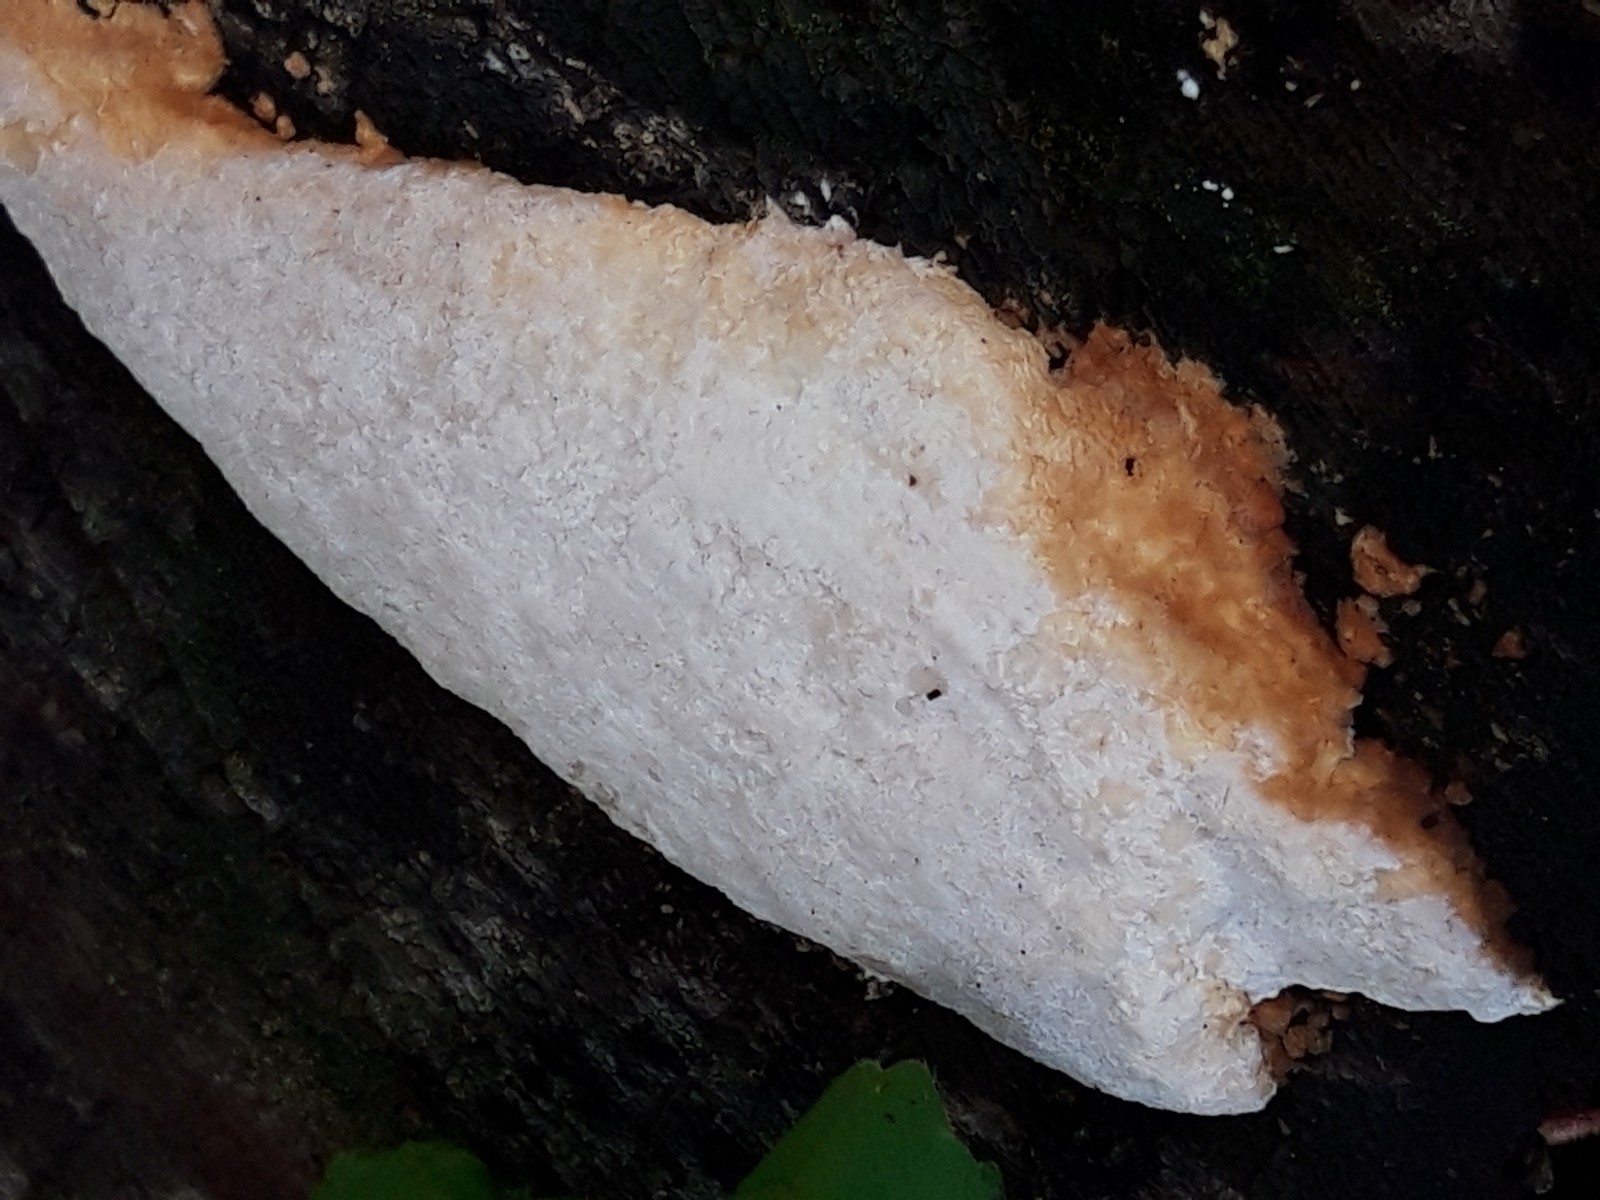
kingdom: Fungi
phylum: Basidiomycota
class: Agaricomycetes
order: Polyporales
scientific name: Polyporales
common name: poresvampordenen
